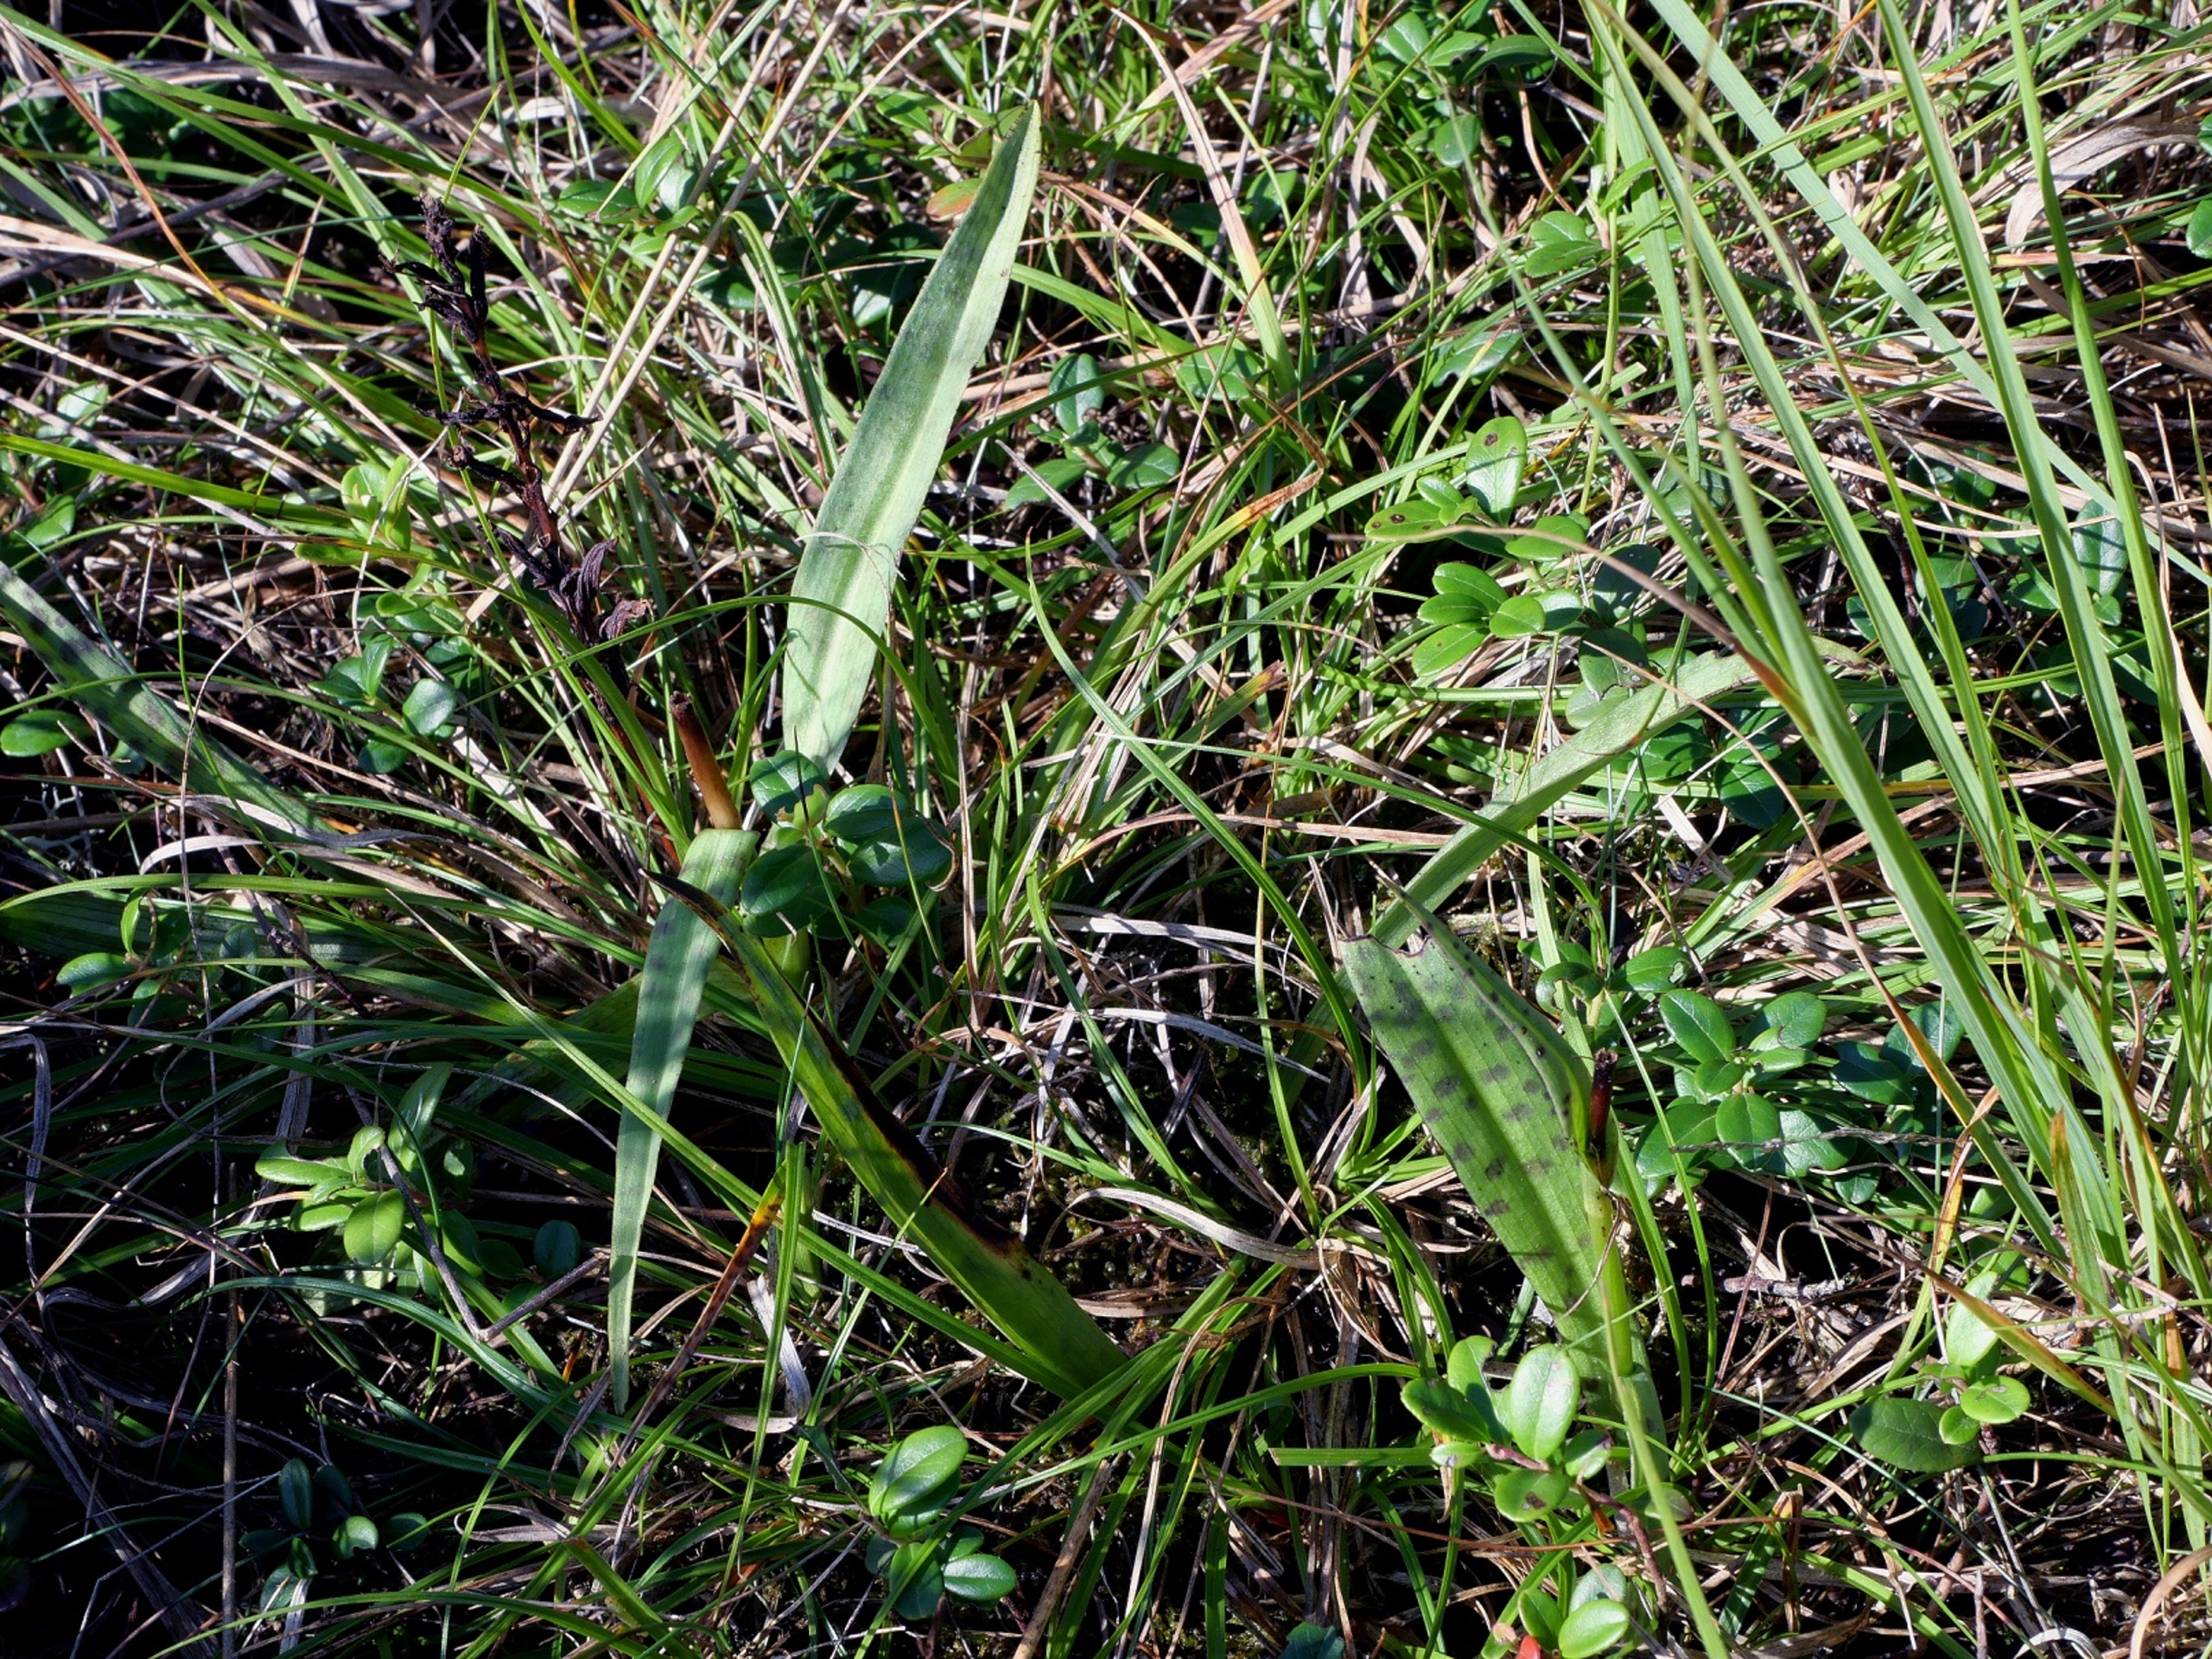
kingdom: Plantae
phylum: Tracheophyta
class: Liliopsida
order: Asparagales
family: Orchidaceae
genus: Dactylorhiza
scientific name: Dactylorhiza maculata
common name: Plettet gøgeurt (underart)
